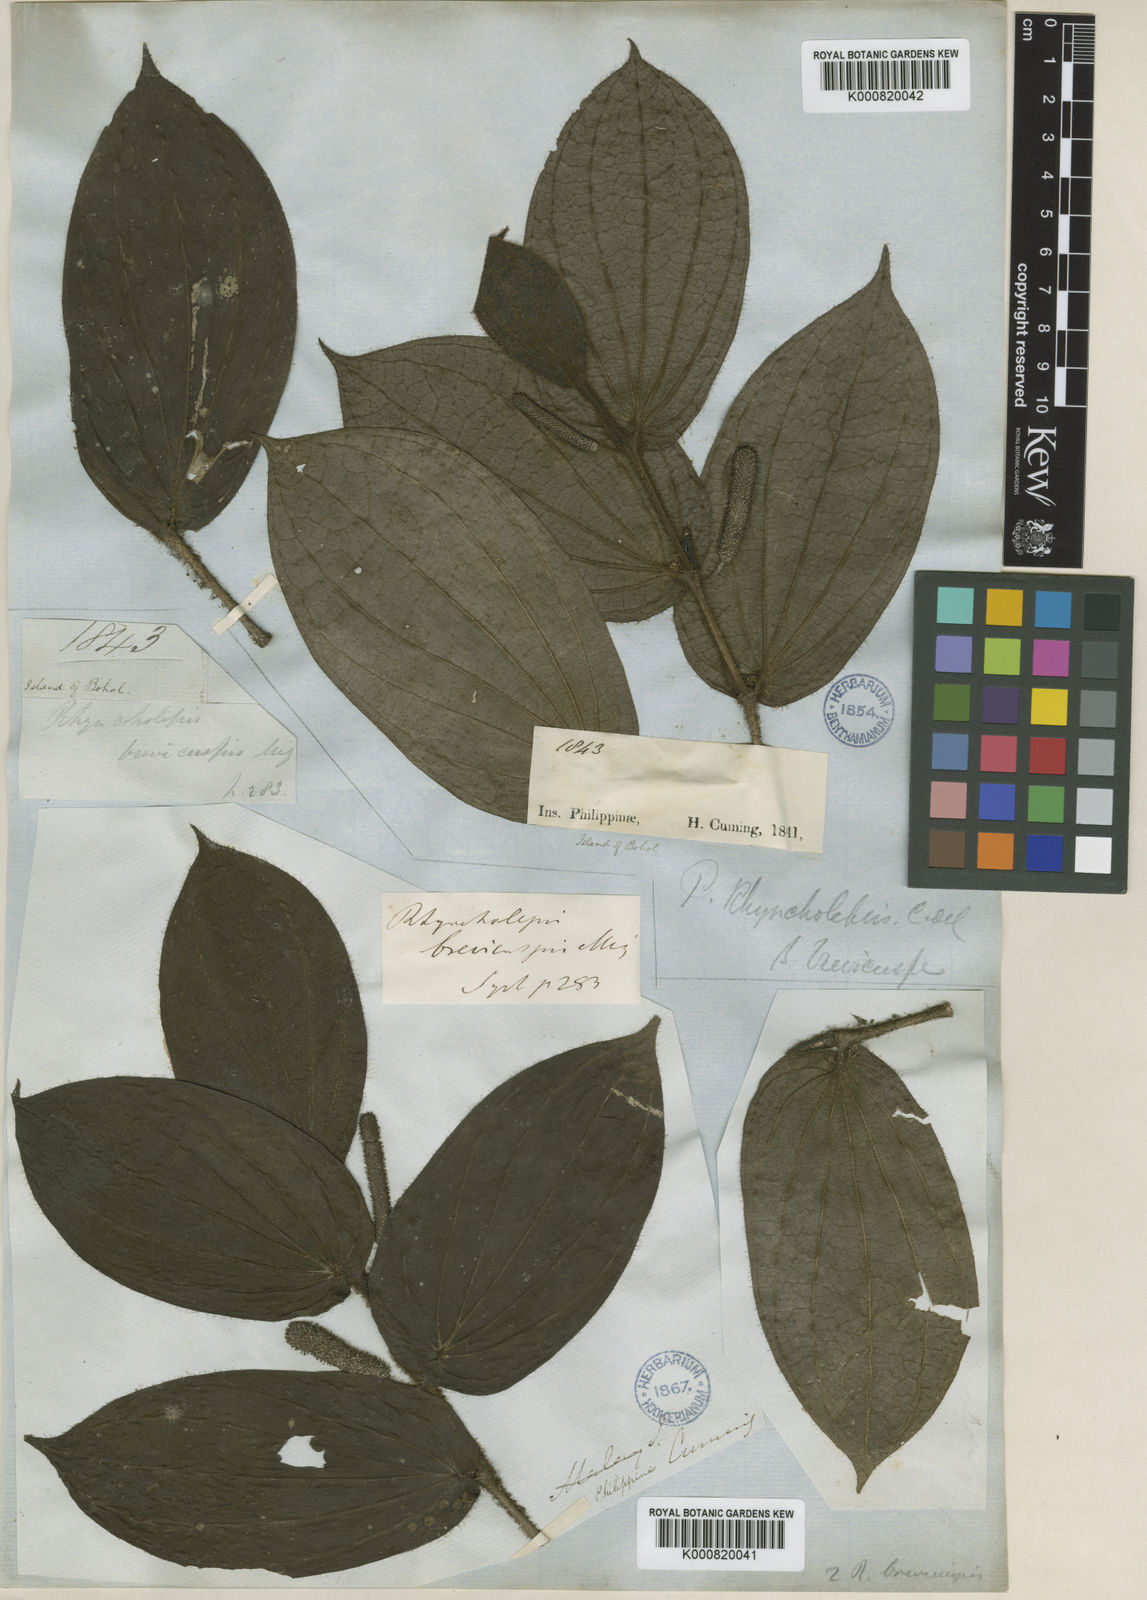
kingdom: Plantae
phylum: Tracheophyta
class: Magnoliopsida
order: Piperales
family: Piperaceae
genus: Piper
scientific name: Piper brevicuspe
